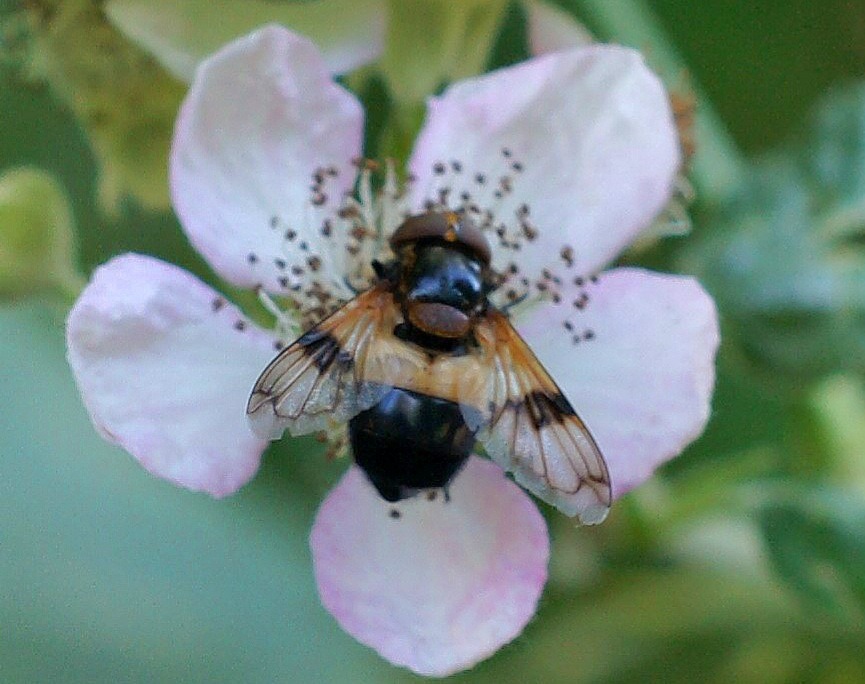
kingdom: Animalia
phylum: Arthropoda
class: Insecta
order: Diptera
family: Syrphidae
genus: Volucella
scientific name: Volucella pellucens
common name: Hvidbåndet humlesvirreflue
